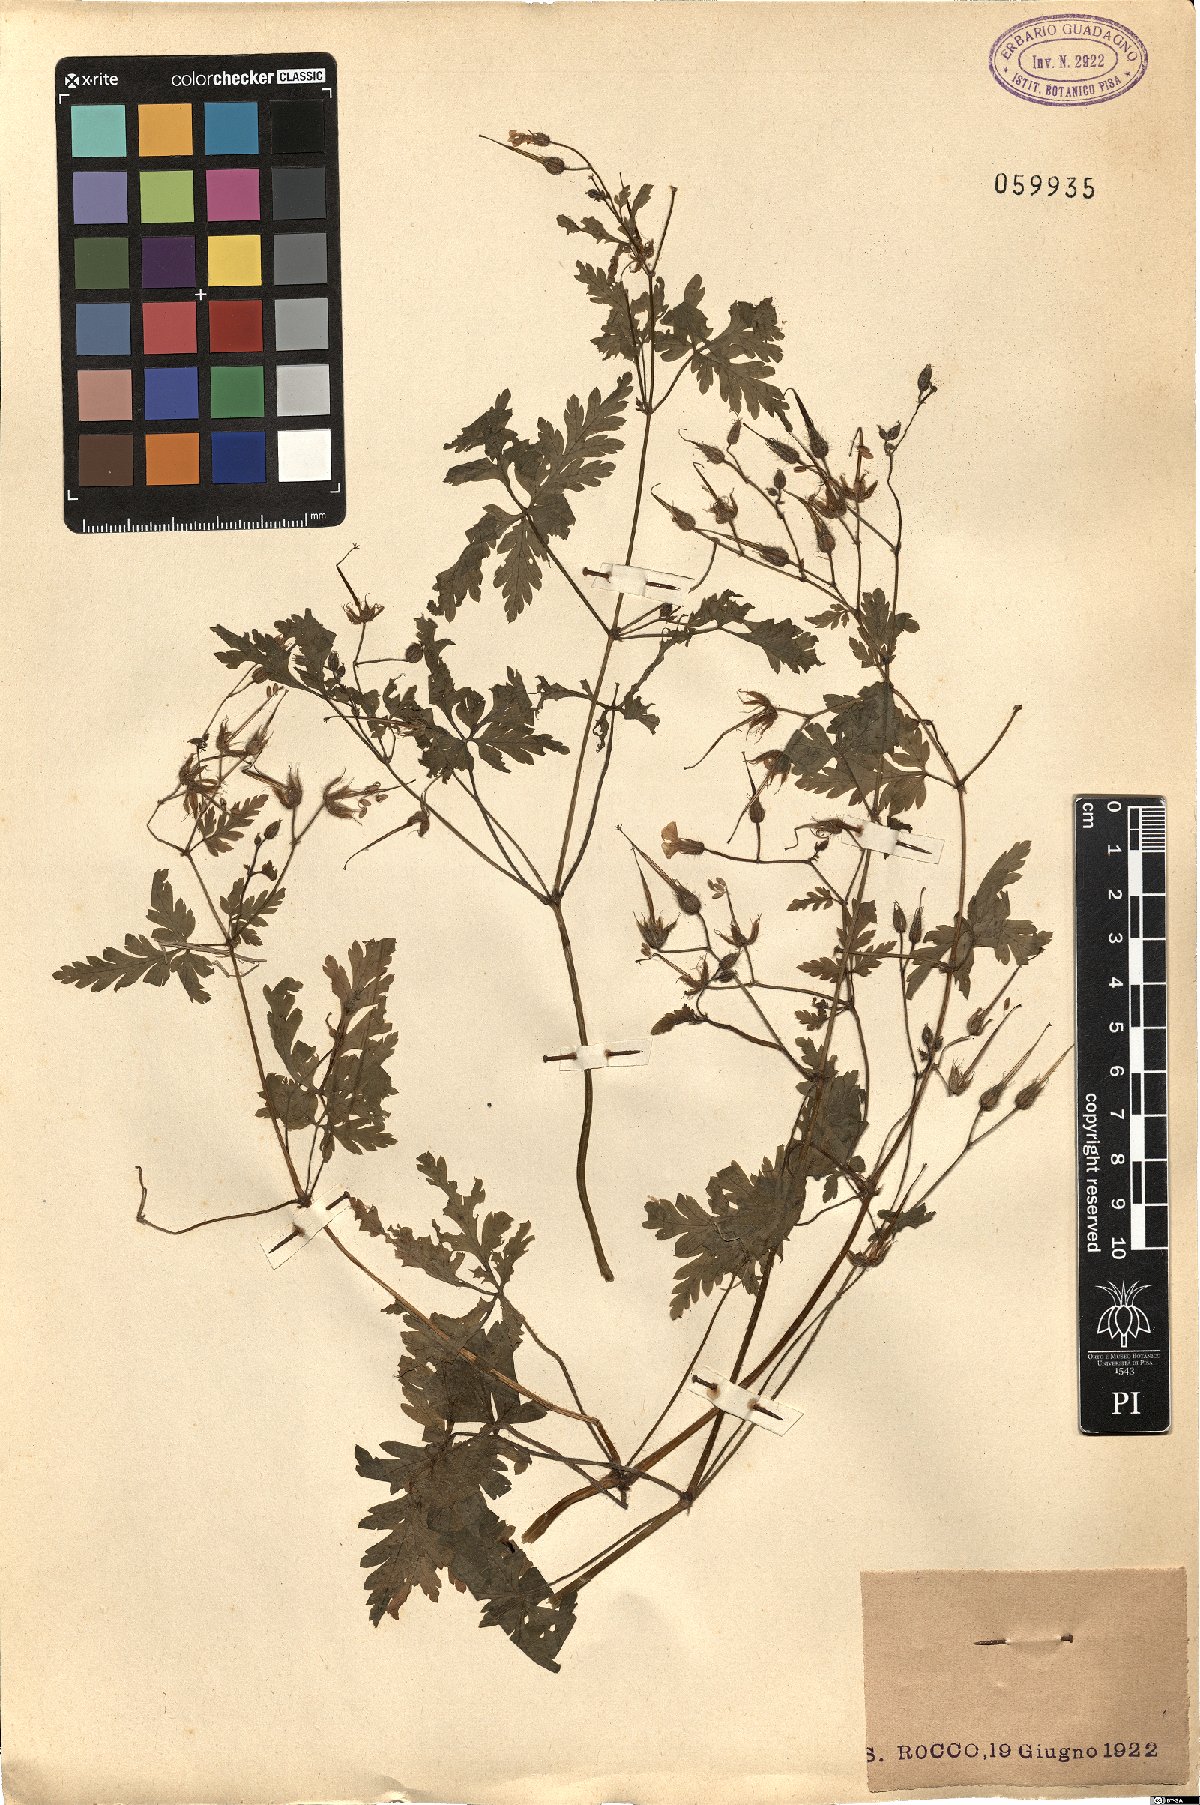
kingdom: Plantae
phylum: Tracheophyta
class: Magnoliopsida
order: Geraniales
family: Geraniaceae
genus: Geranium
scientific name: Geranium purpureum
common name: Little-robin
